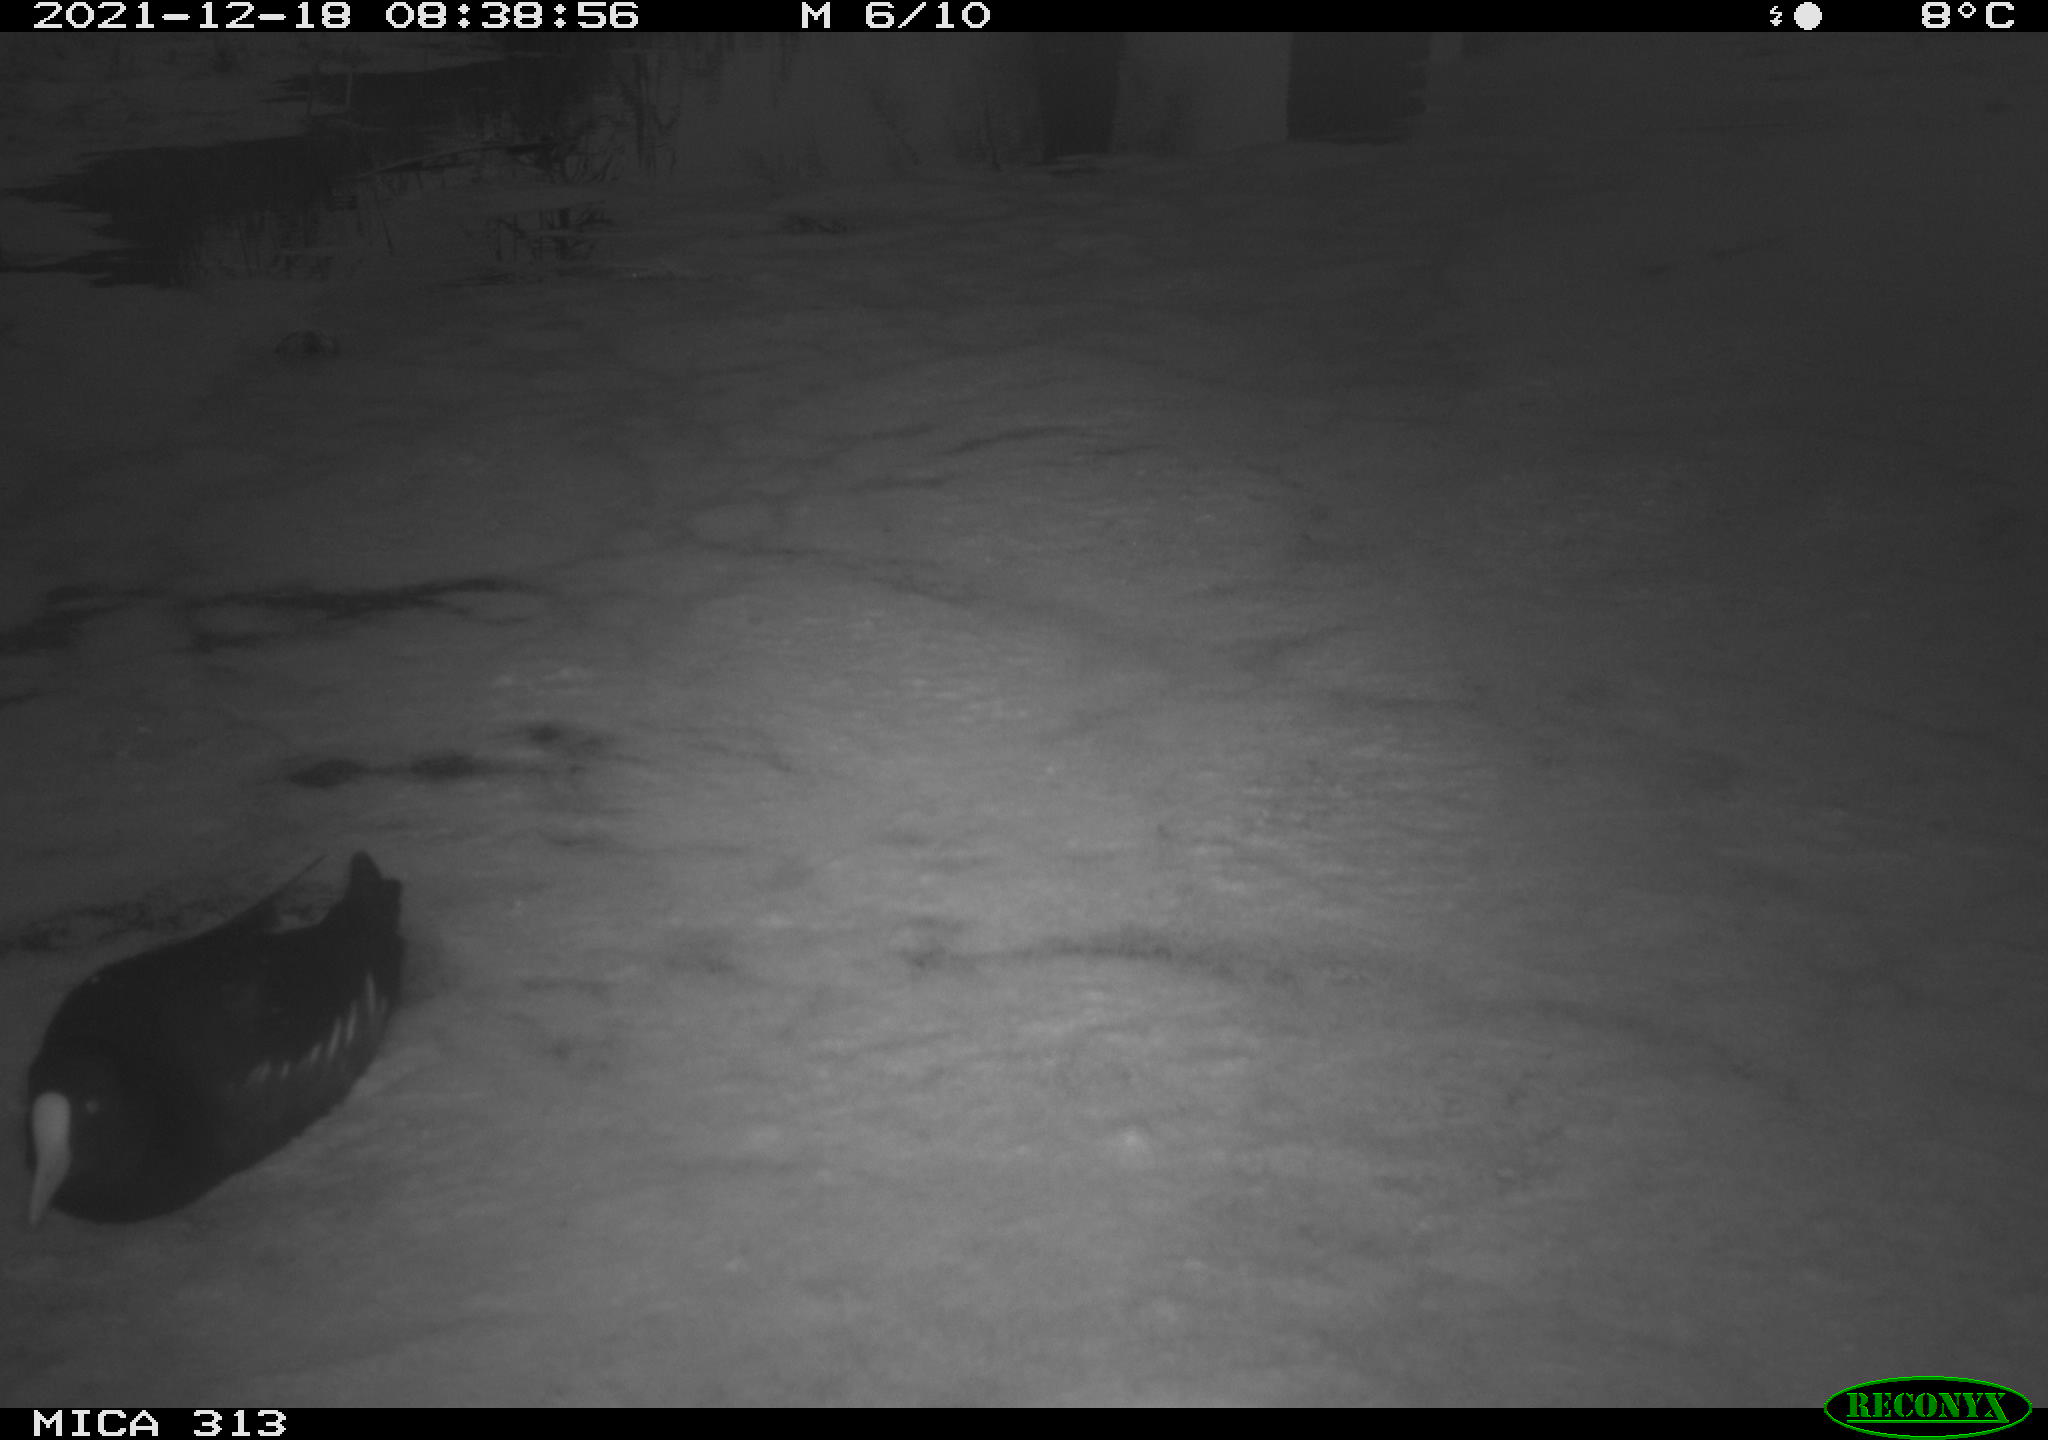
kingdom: Animalia
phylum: Chordata
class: Aves
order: Gruiformes
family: Rallidae
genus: Gallinula
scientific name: Gallinula chloropus
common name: Common moorhen
